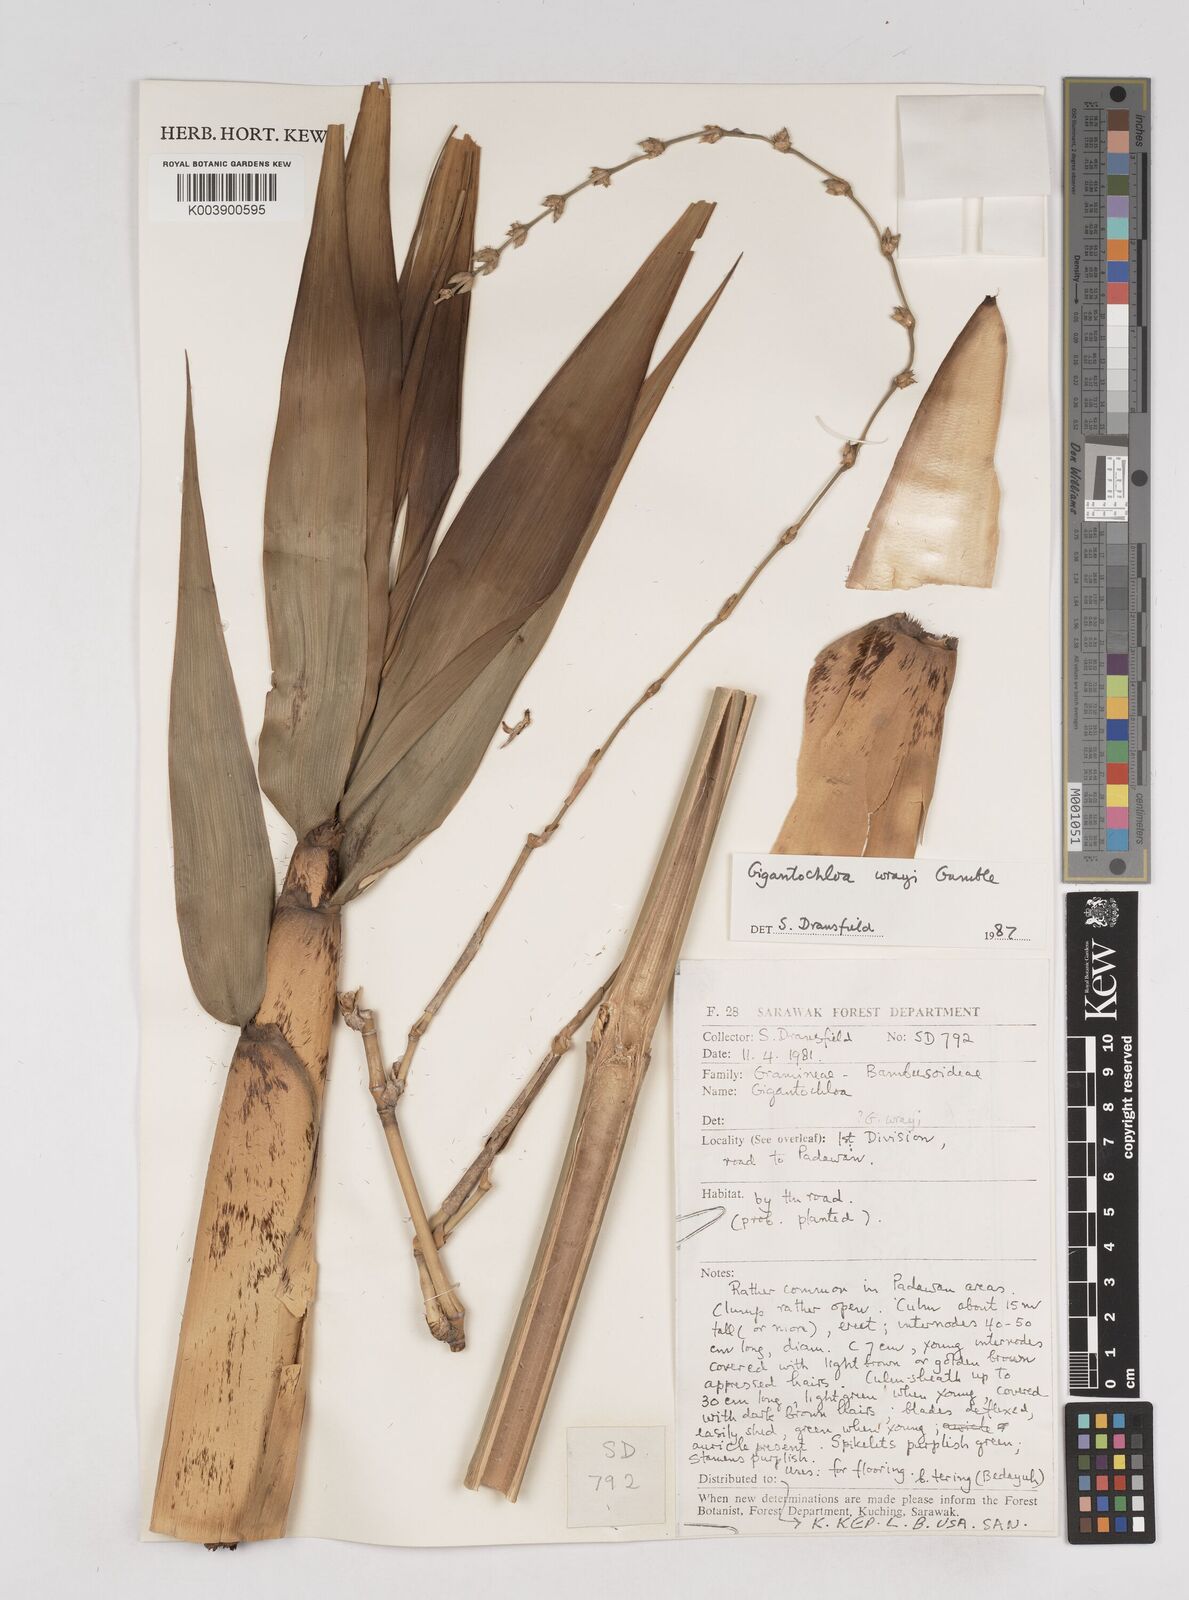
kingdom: Plantae
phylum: Tracheophyta
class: Liliopsida
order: Poales
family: Poaceae
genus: Gigantochloa
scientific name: Gigantochloa wrayi
